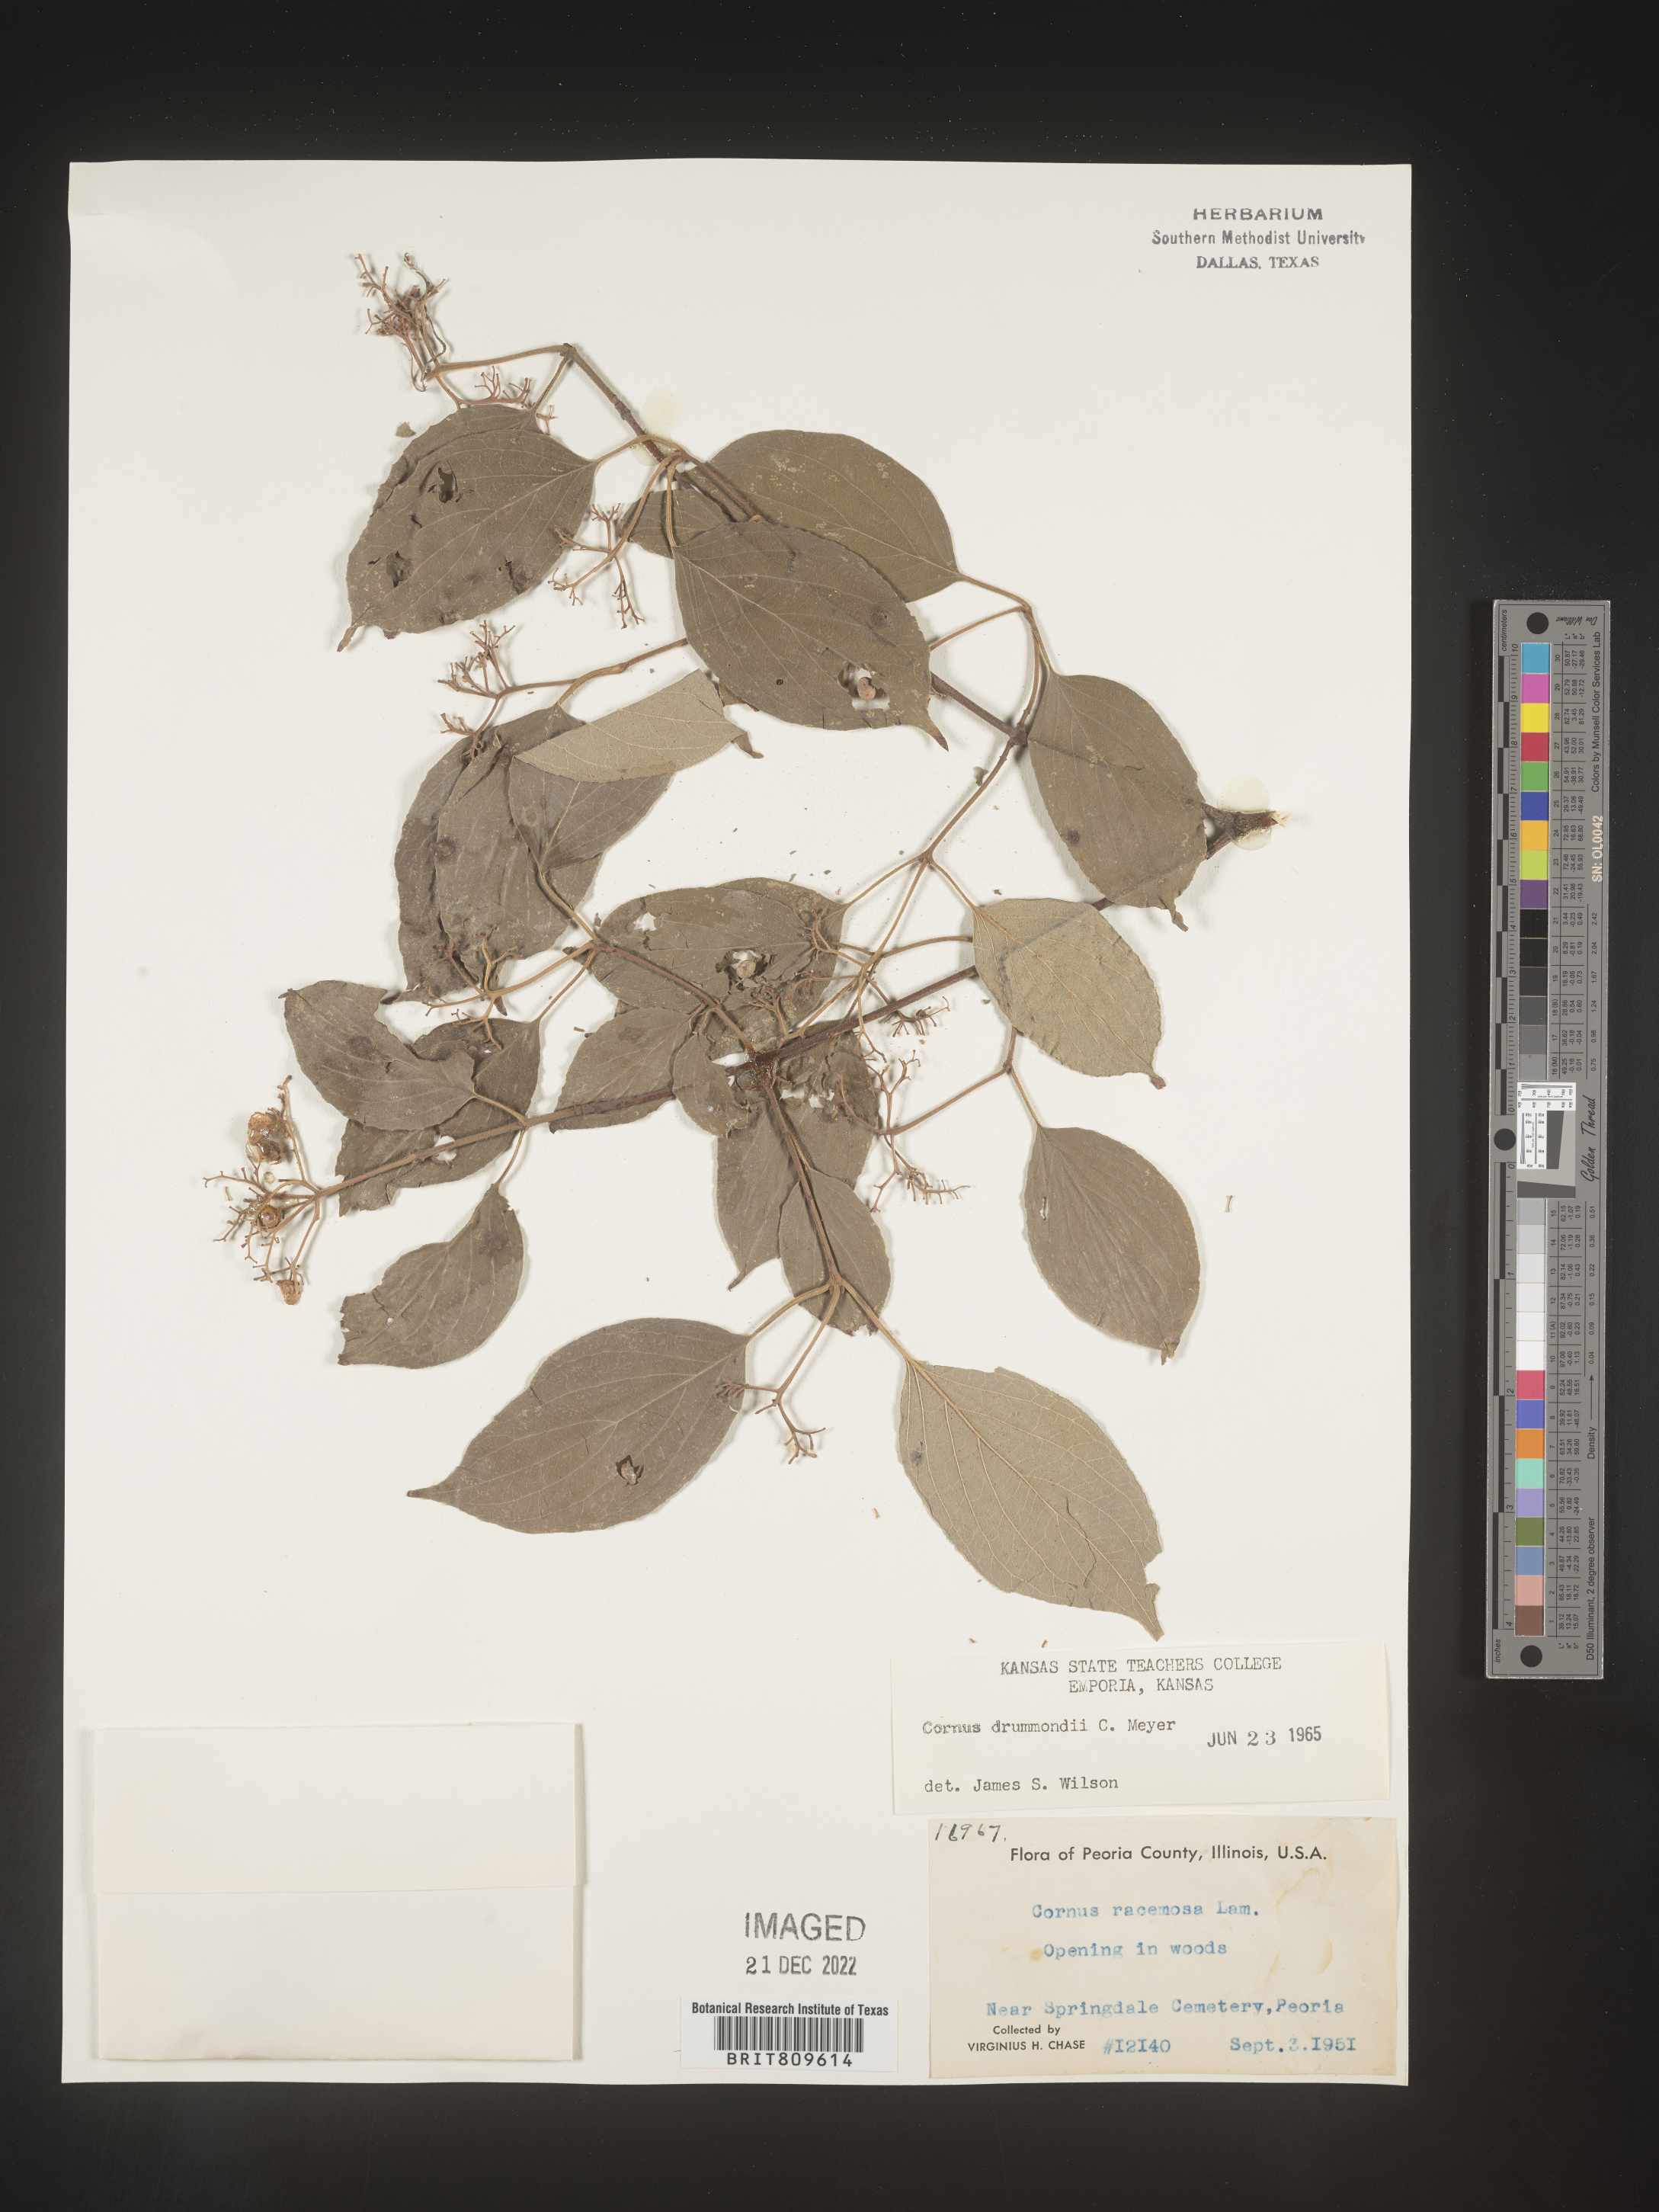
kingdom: Plantae
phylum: Tracheophyta
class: Magnoliopsida
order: Cornales
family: Cornaceae
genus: Cornus
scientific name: Cornus drummondii
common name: Rough-leaf dogwood
